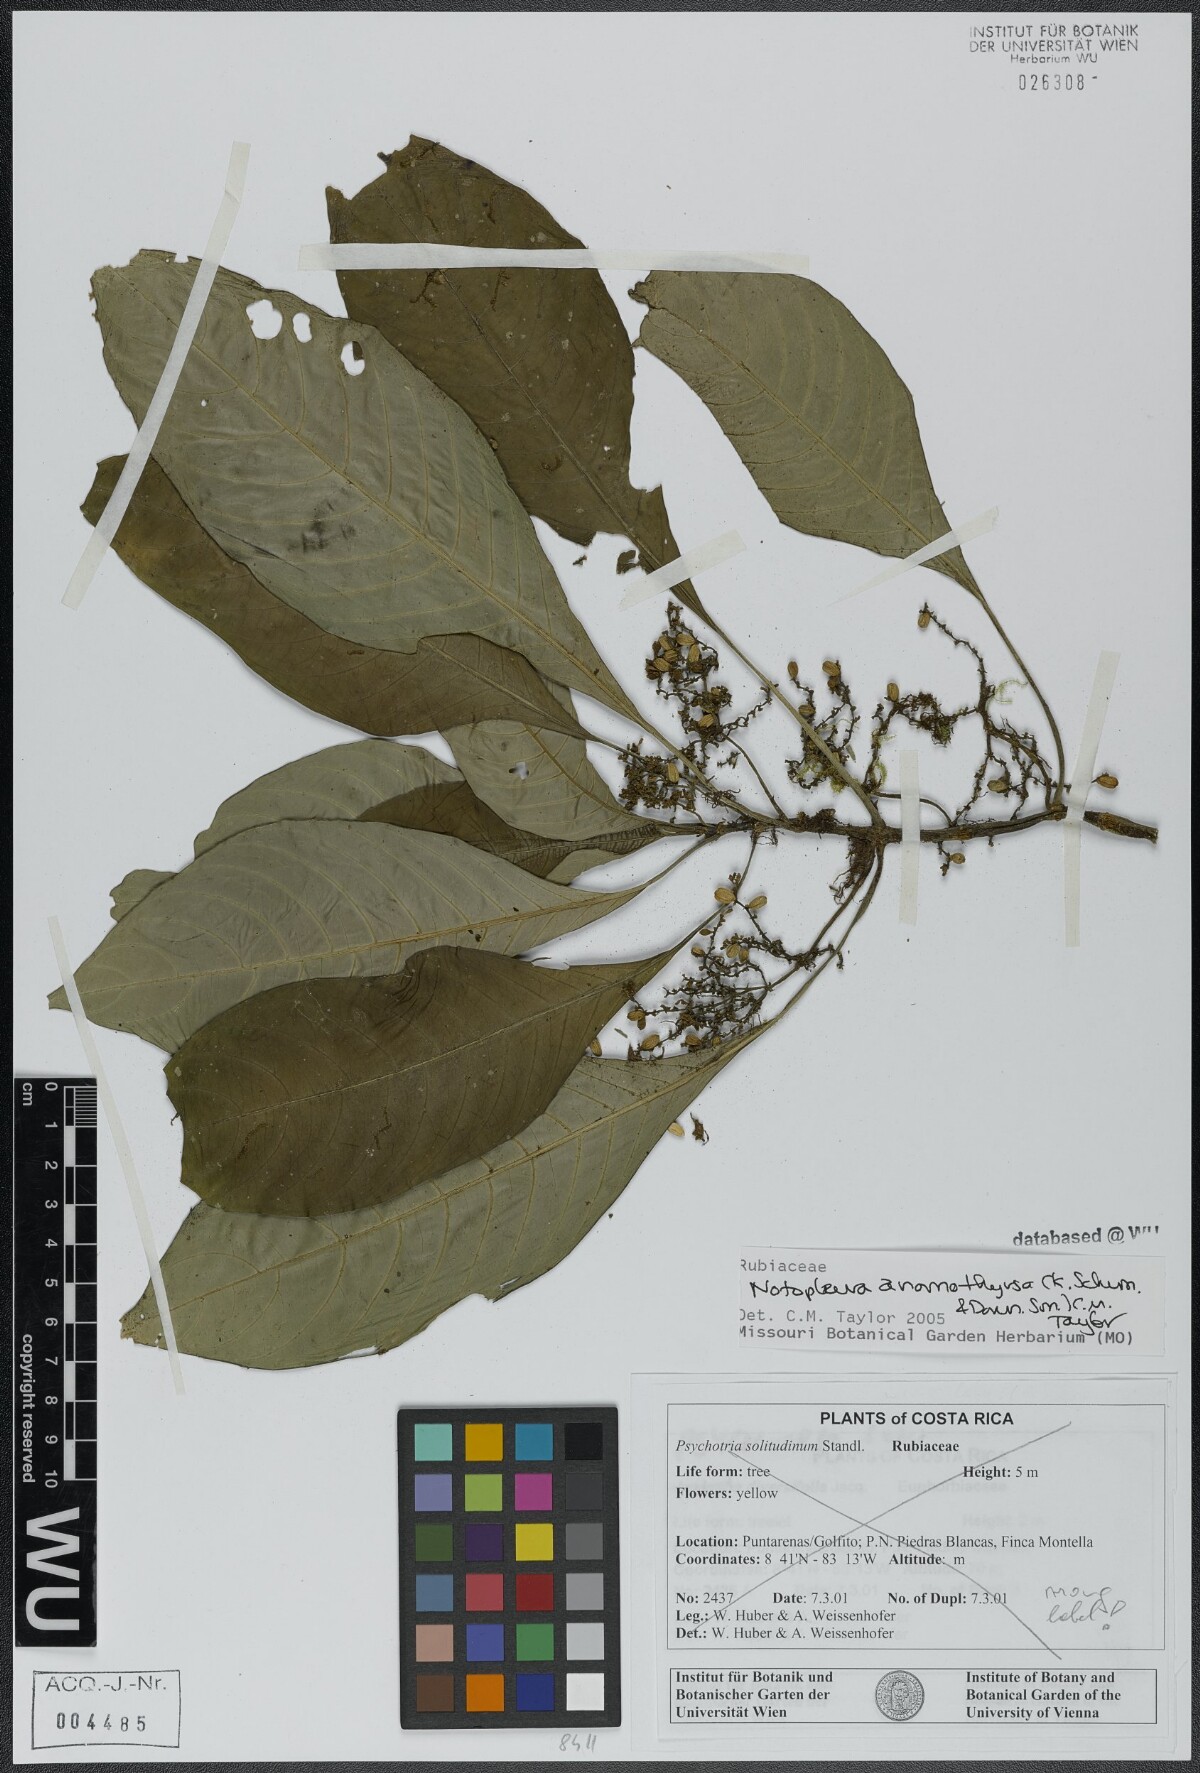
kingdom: Plantae
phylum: Tracheophyta
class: Magnoliopsida
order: Gentianales
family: Rubiaceae
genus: Notopleura
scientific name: Notopleura anomothyrsa
